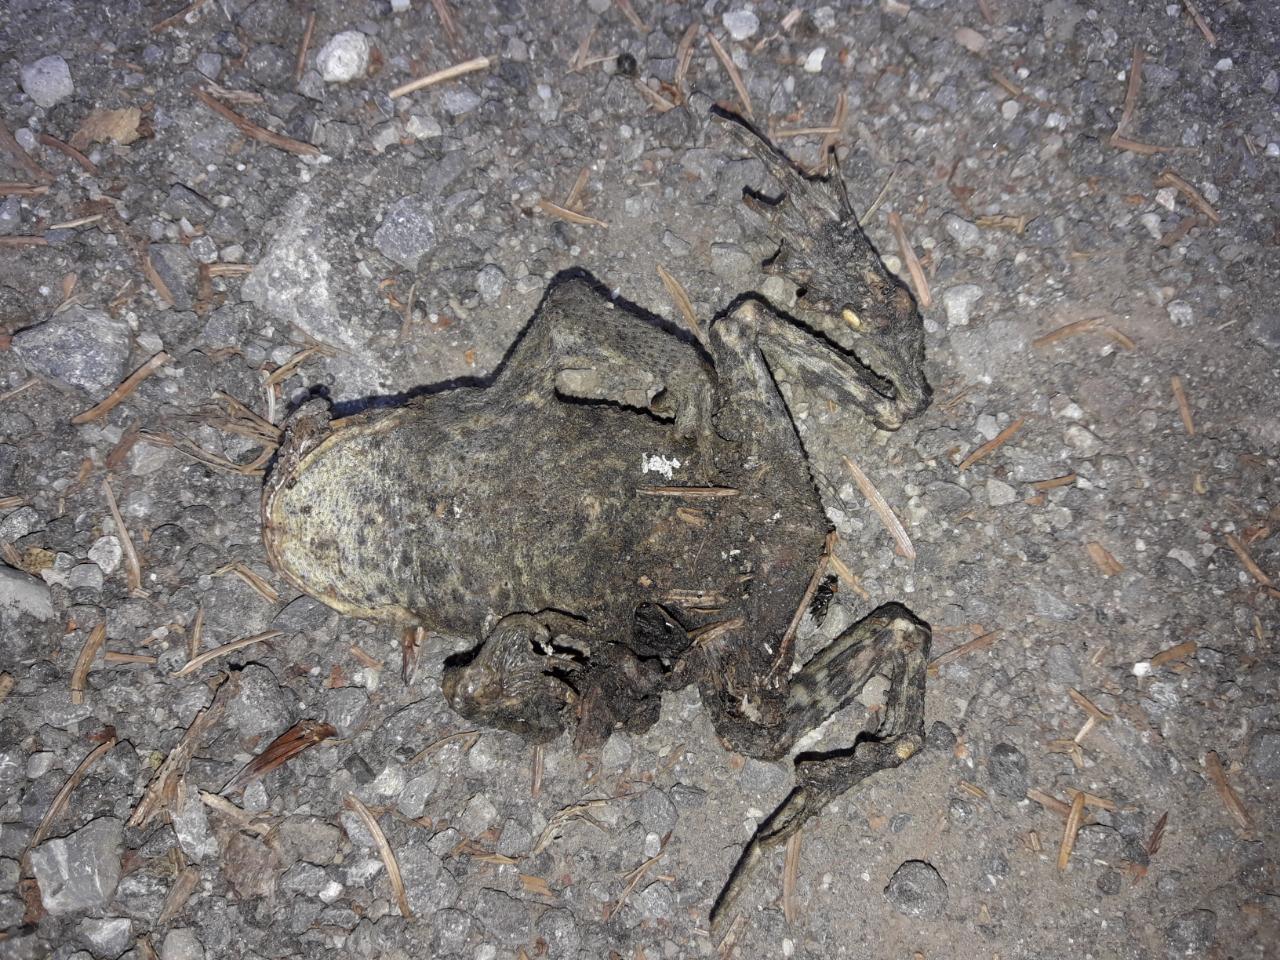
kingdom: Animalia
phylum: Chordata
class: Amphibia
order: Anura
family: Bufonidae
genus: Bufo
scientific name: Bufo bufo
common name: Common toad
